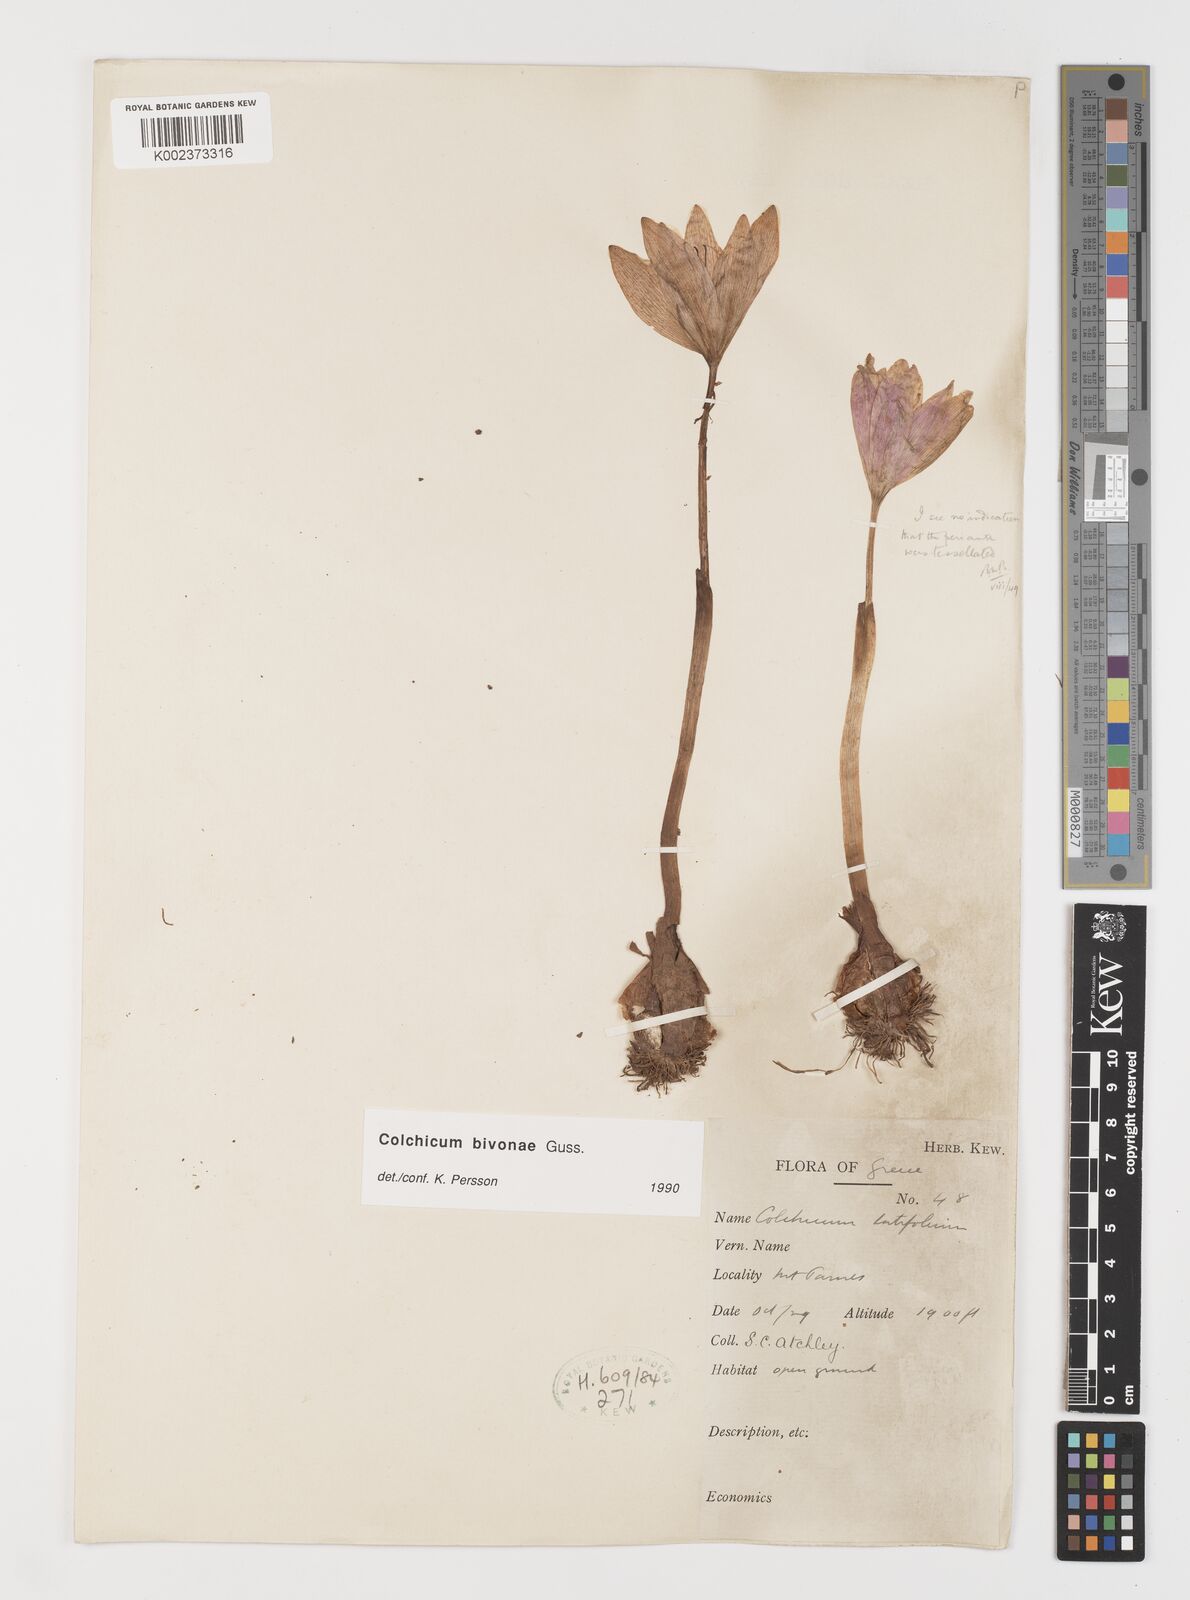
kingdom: Plantae
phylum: Tracheophyta
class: Liliopsida
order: Liliales
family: Colchicaceae
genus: Colchicum
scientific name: Colchicum bivonae
